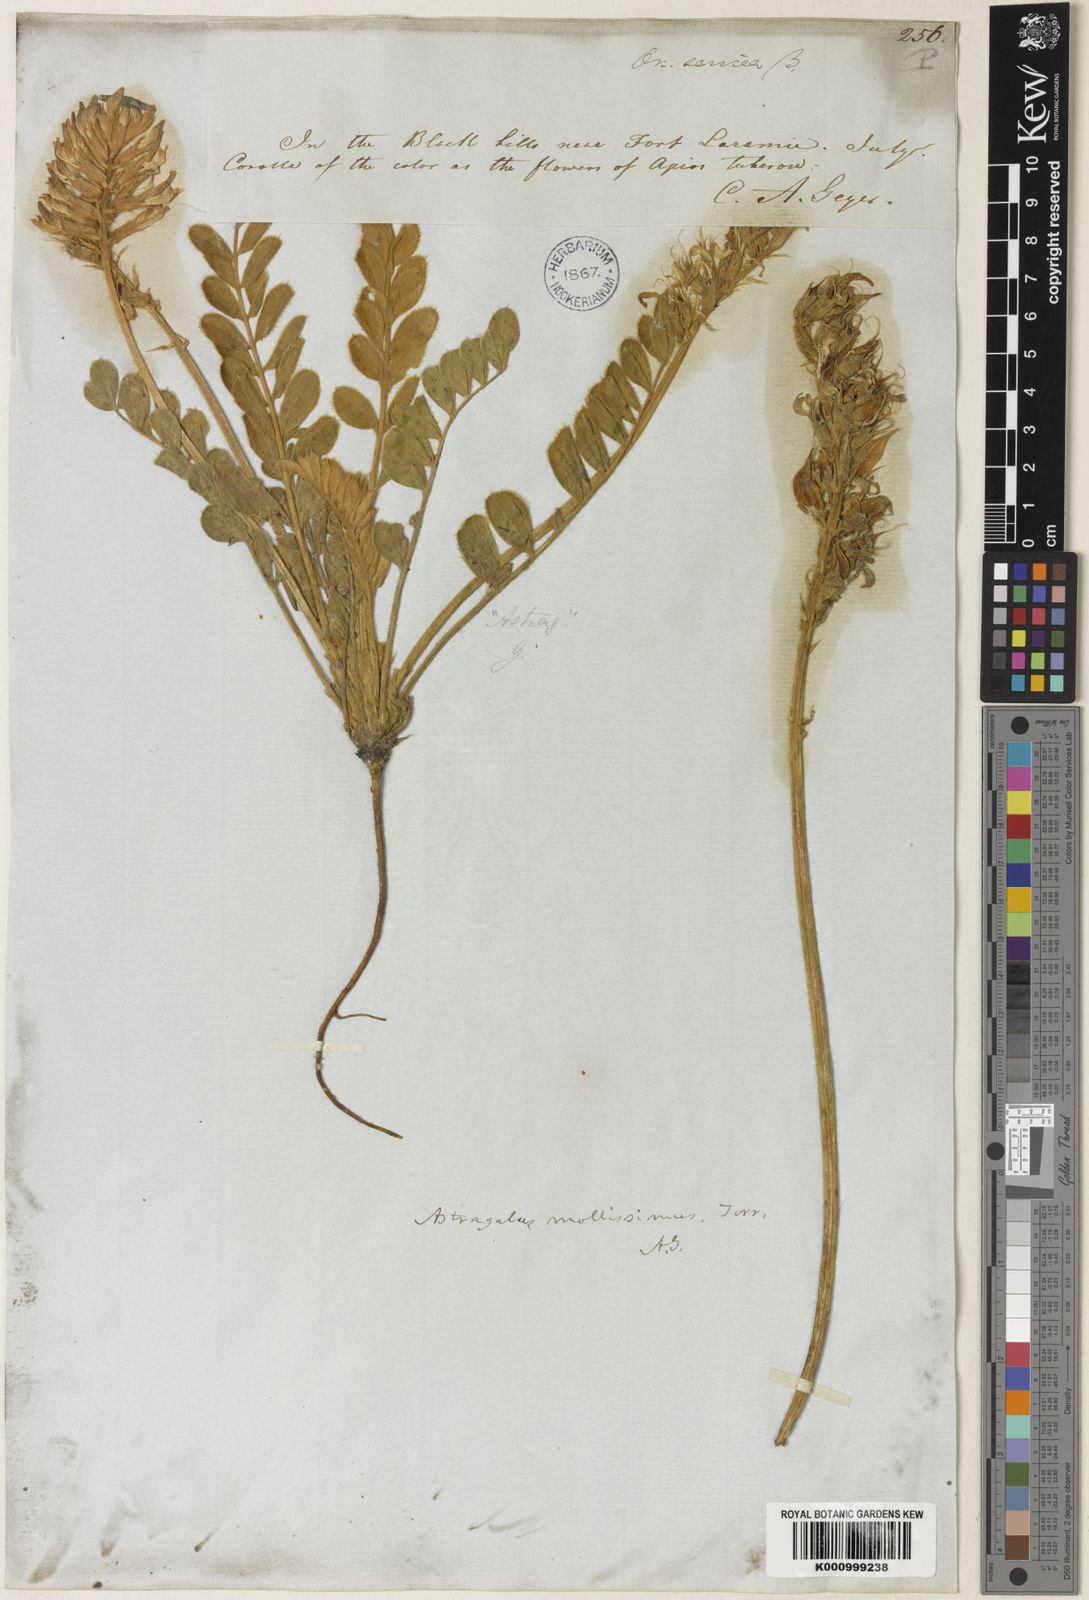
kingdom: Plantae
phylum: Tracheophyta
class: Magnoliopsida
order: Fabales
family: Fabaceae
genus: Astragalus
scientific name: Astragalus mollissimus
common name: Woolly locoweed
